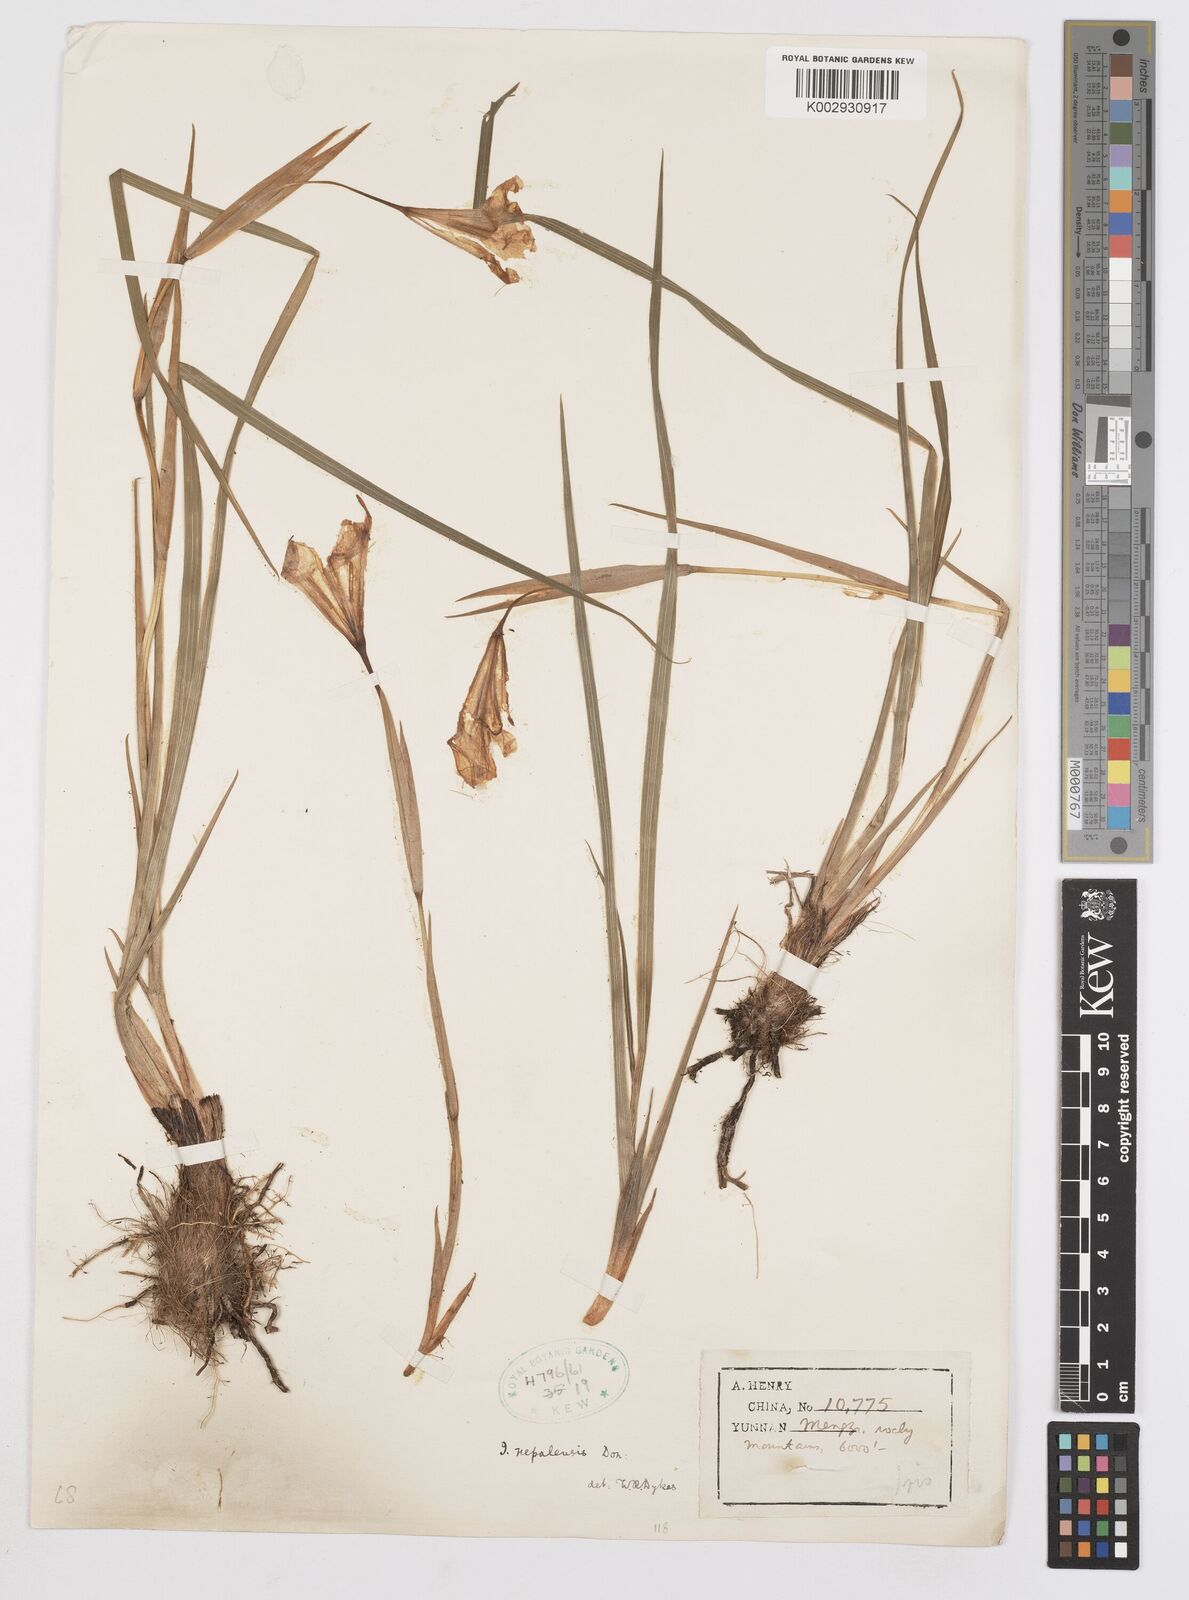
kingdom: Plantae
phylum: Tracheophyta
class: Liliopsida
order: Asparagales
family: Iridaceae
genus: Iris
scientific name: Iris decora
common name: Nepal iris
